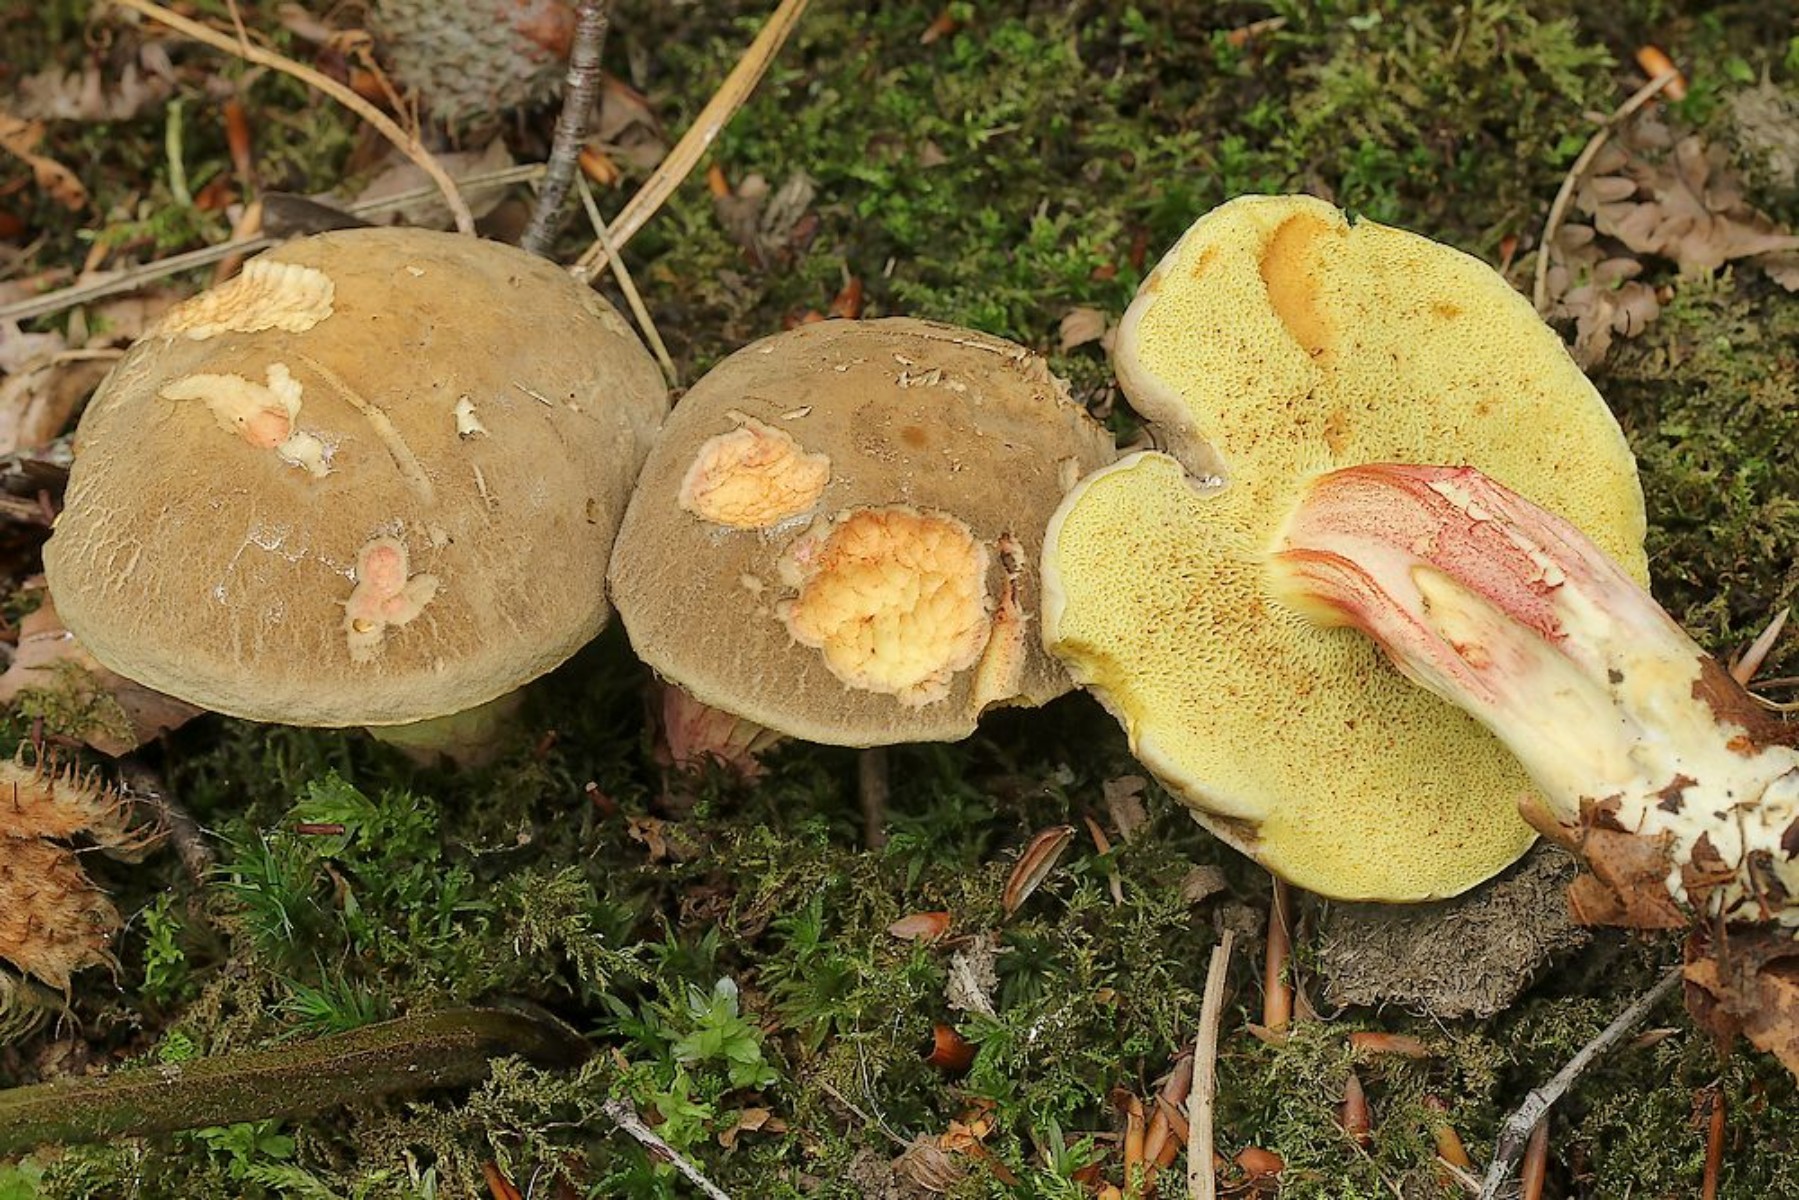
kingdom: Fungi
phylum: Basidiomycota
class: Agaricomycetes
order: Boletales
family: Boletaceae
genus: Xerocomellus
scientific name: Xerocomellus chrysenteron
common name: rødsprukken rørhat
